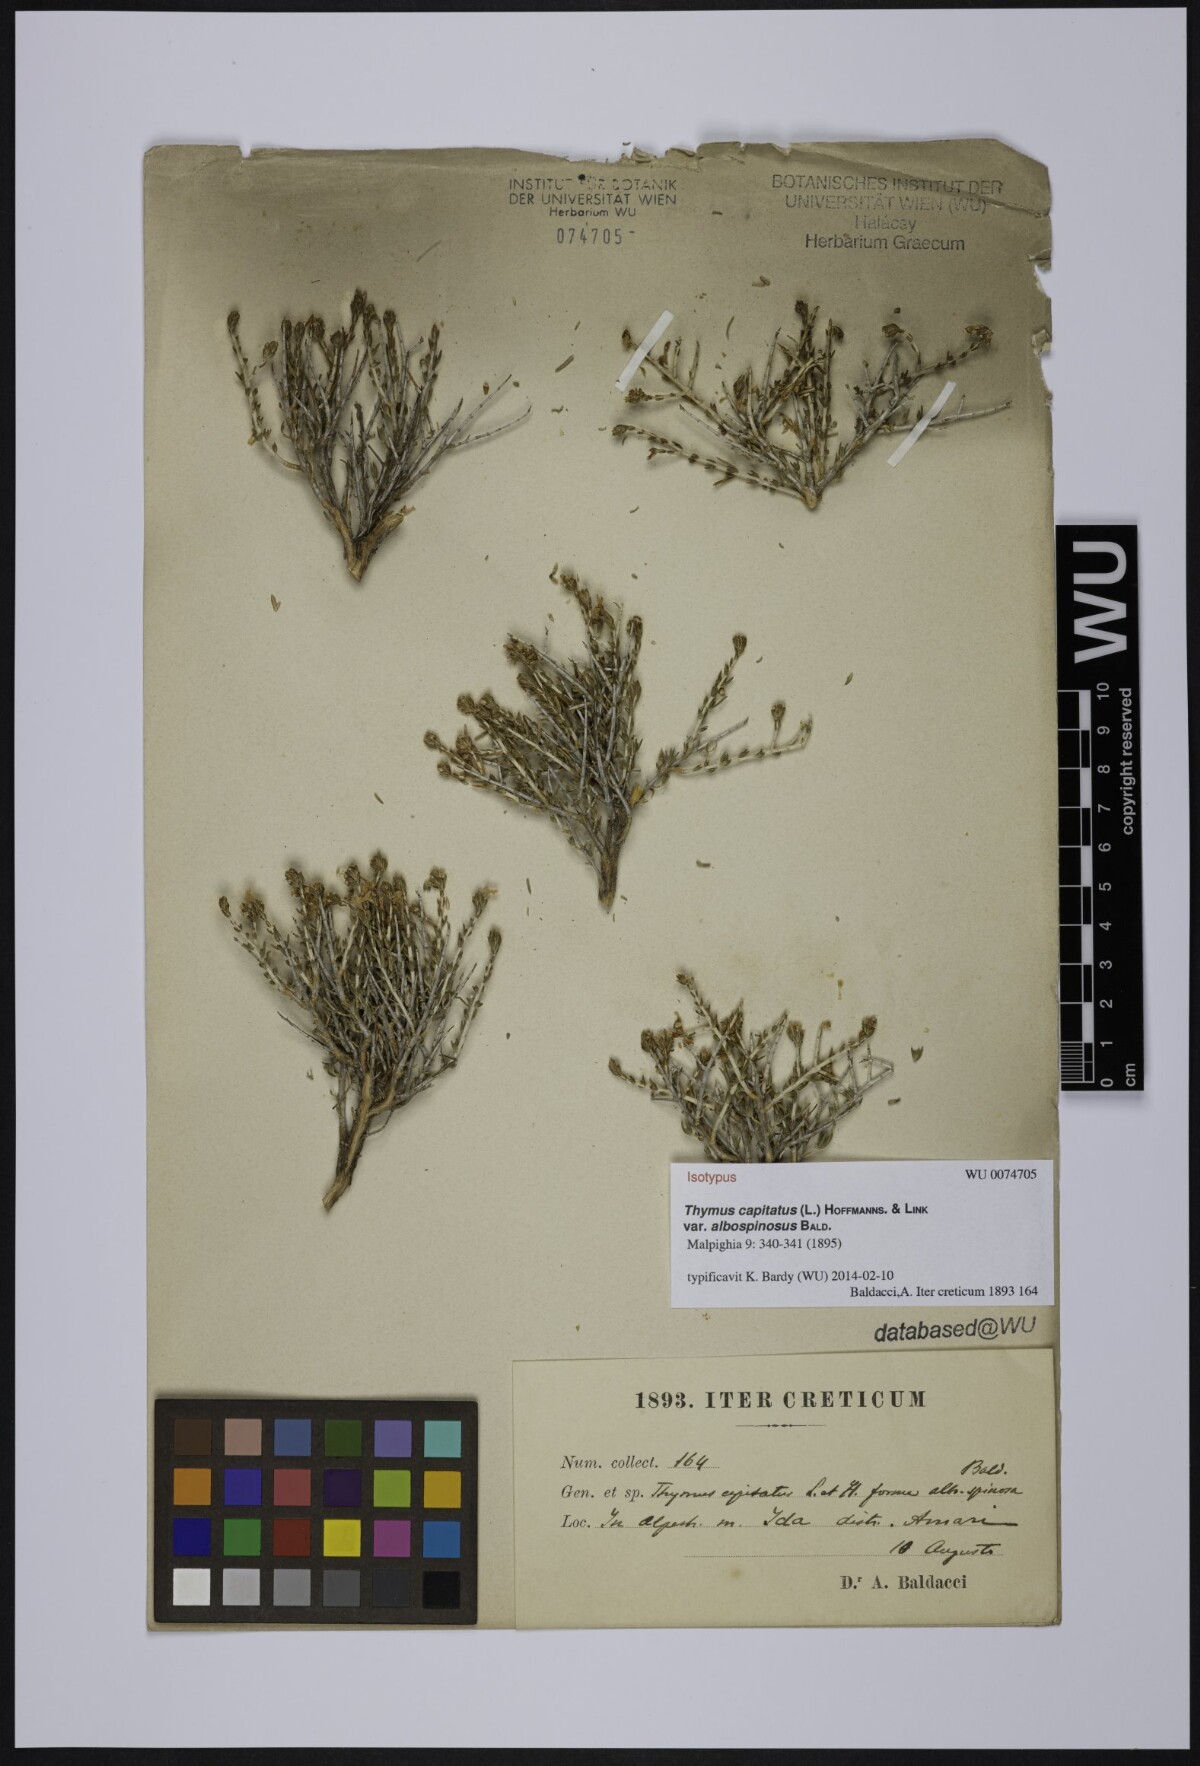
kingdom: Plantae
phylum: Tracheophyta
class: Magnoliopsida
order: Lamiales
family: Lamiaceae
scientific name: Lamiaceae
